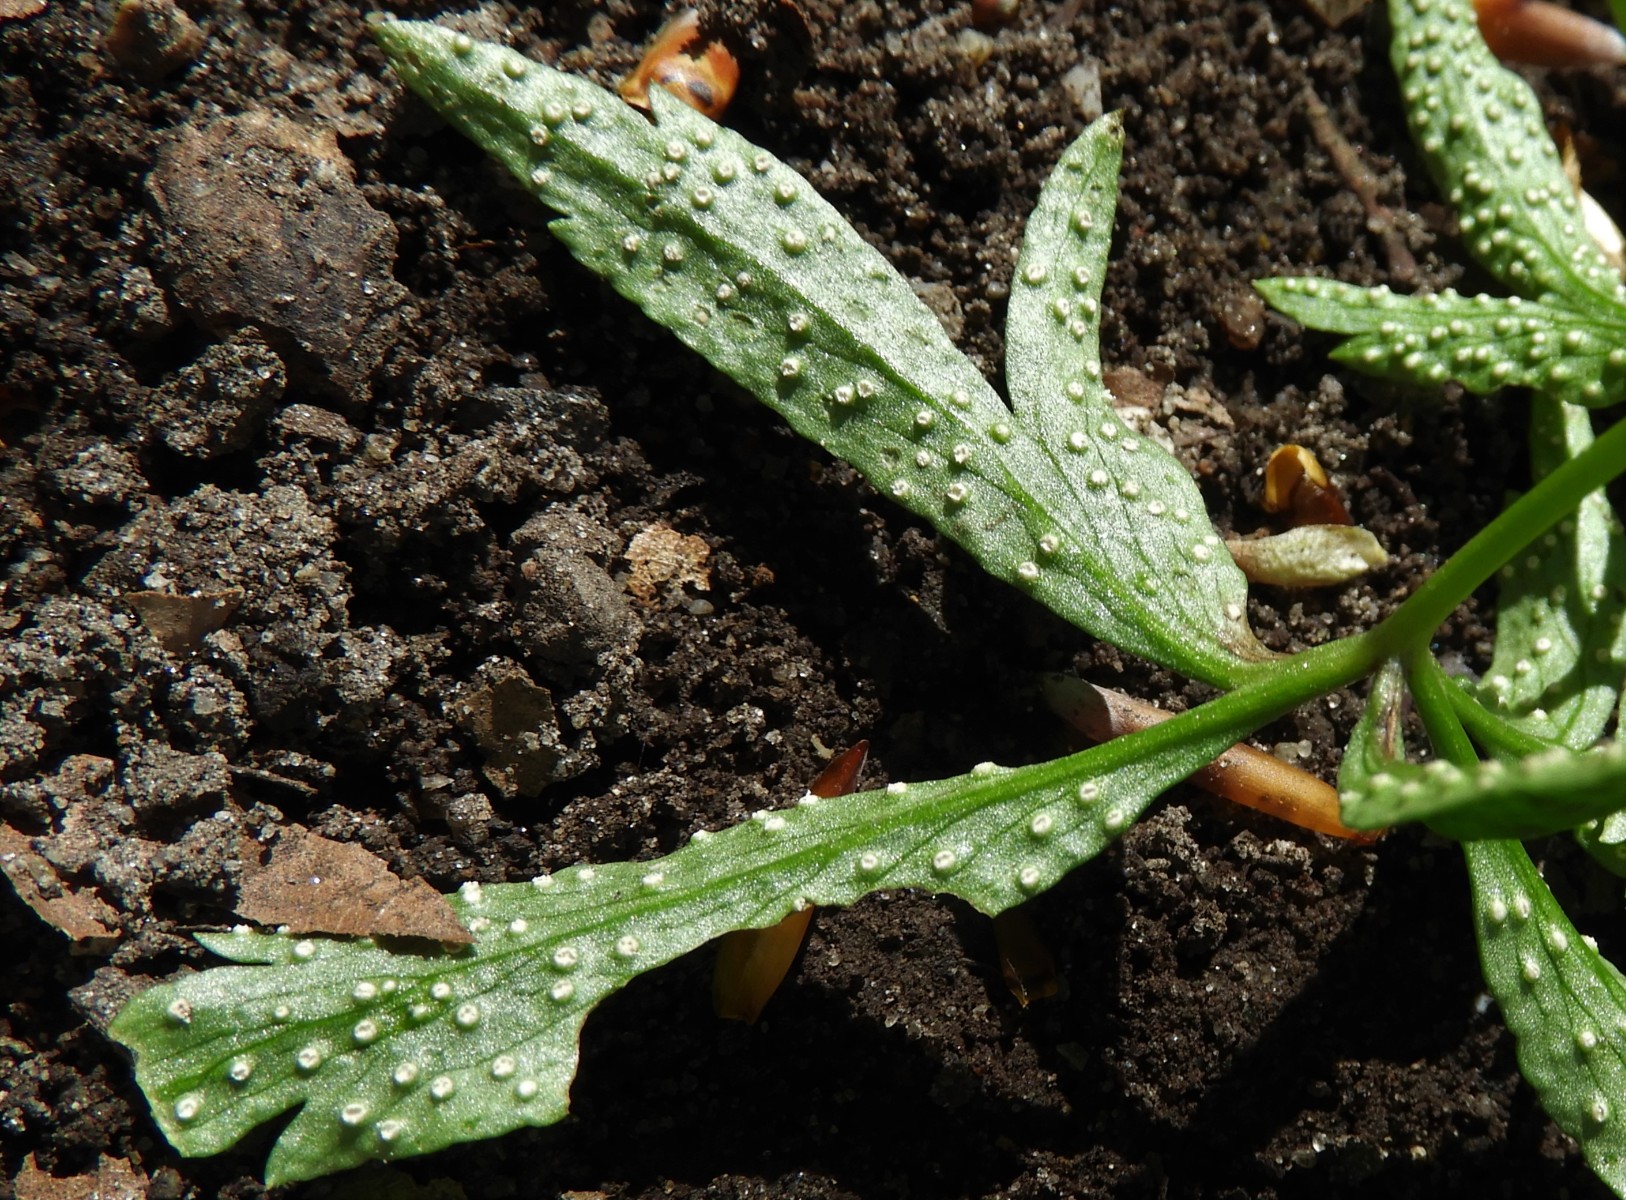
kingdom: Fungi
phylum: Basidiomycota
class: Pucciniomycetes
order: Pucciniales
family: Ochropsoraceae
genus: Ochropsora
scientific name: Ochropsora ariae
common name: anemone-okkerpletrust
